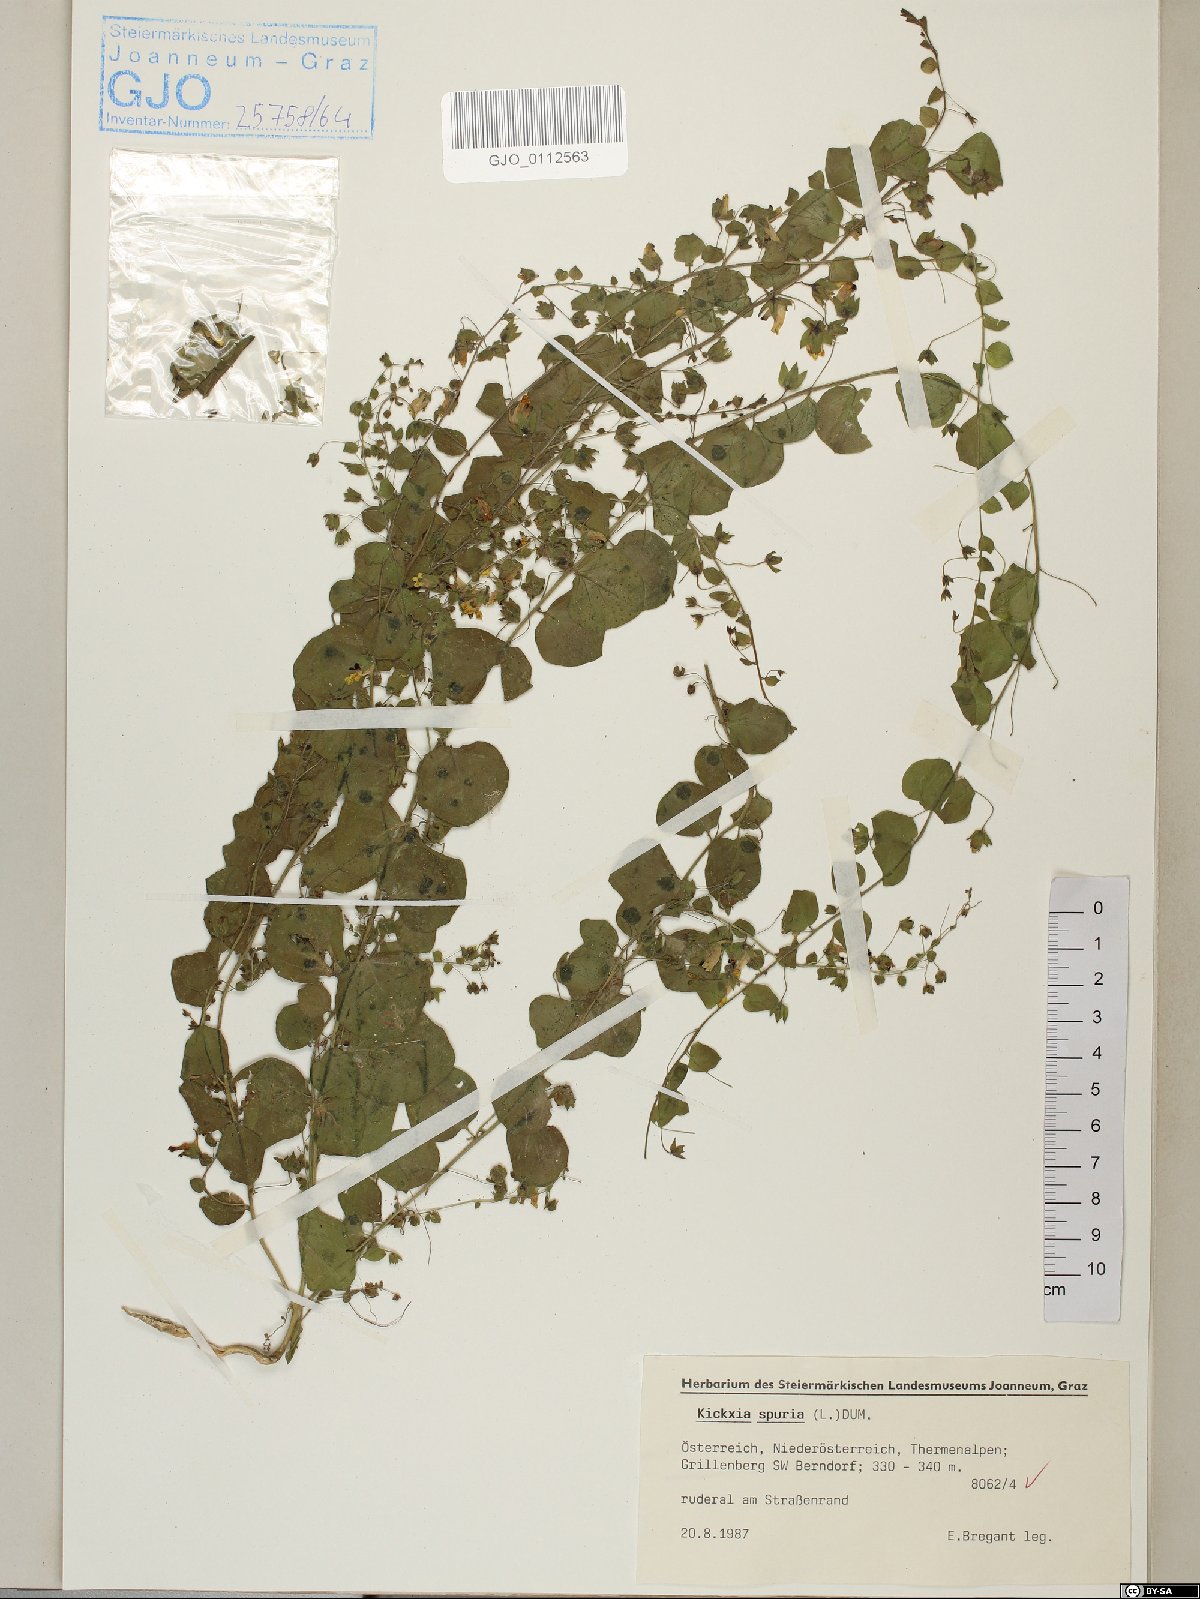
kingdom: Plantae
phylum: Tracheophyta
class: Magnoliopsida
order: Lamiales
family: Plantaginaceae
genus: Kickxia
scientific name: Kickxia spuria
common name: Round-leaved fluellen
